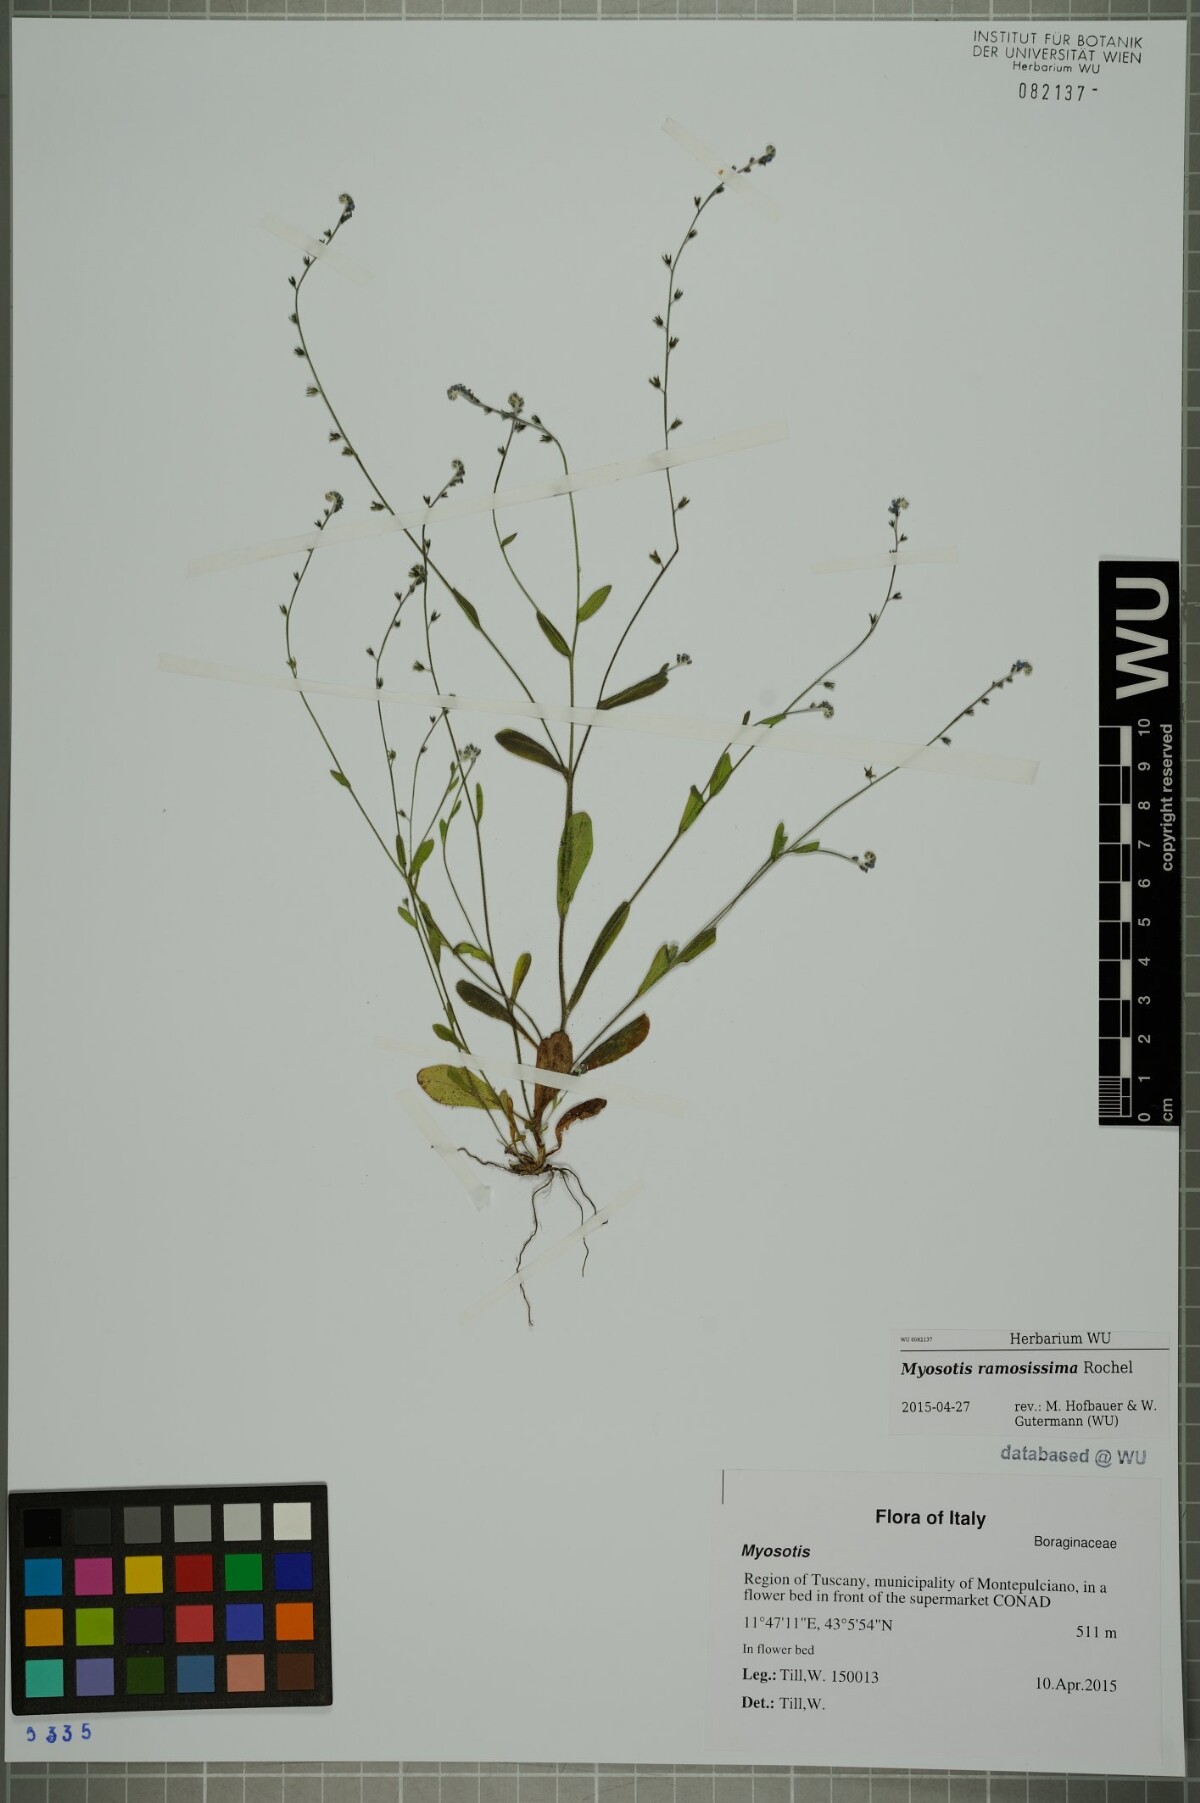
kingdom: Plantae
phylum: Tracheophyta
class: Magnoliopsida
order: Boraginales
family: Boraginaceae
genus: Myosotis
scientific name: Myosotis ramosissima
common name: Early forget-me-not
